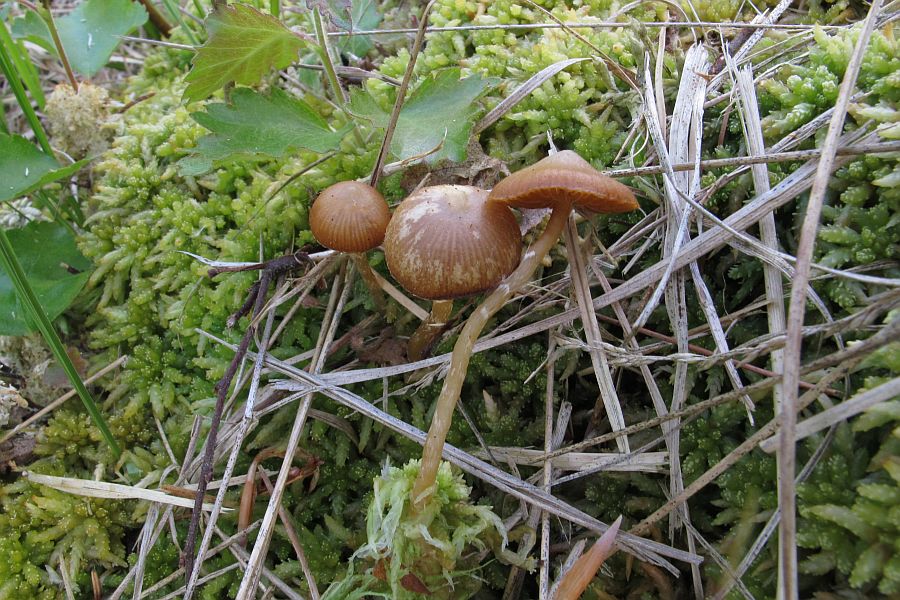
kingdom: Fungi
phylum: Basidiomycota
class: Agaricomycetes
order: Agaricales
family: Hymenogastraceae
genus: Galerina
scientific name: Galerina paludosa
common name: mose-hjelmhat
